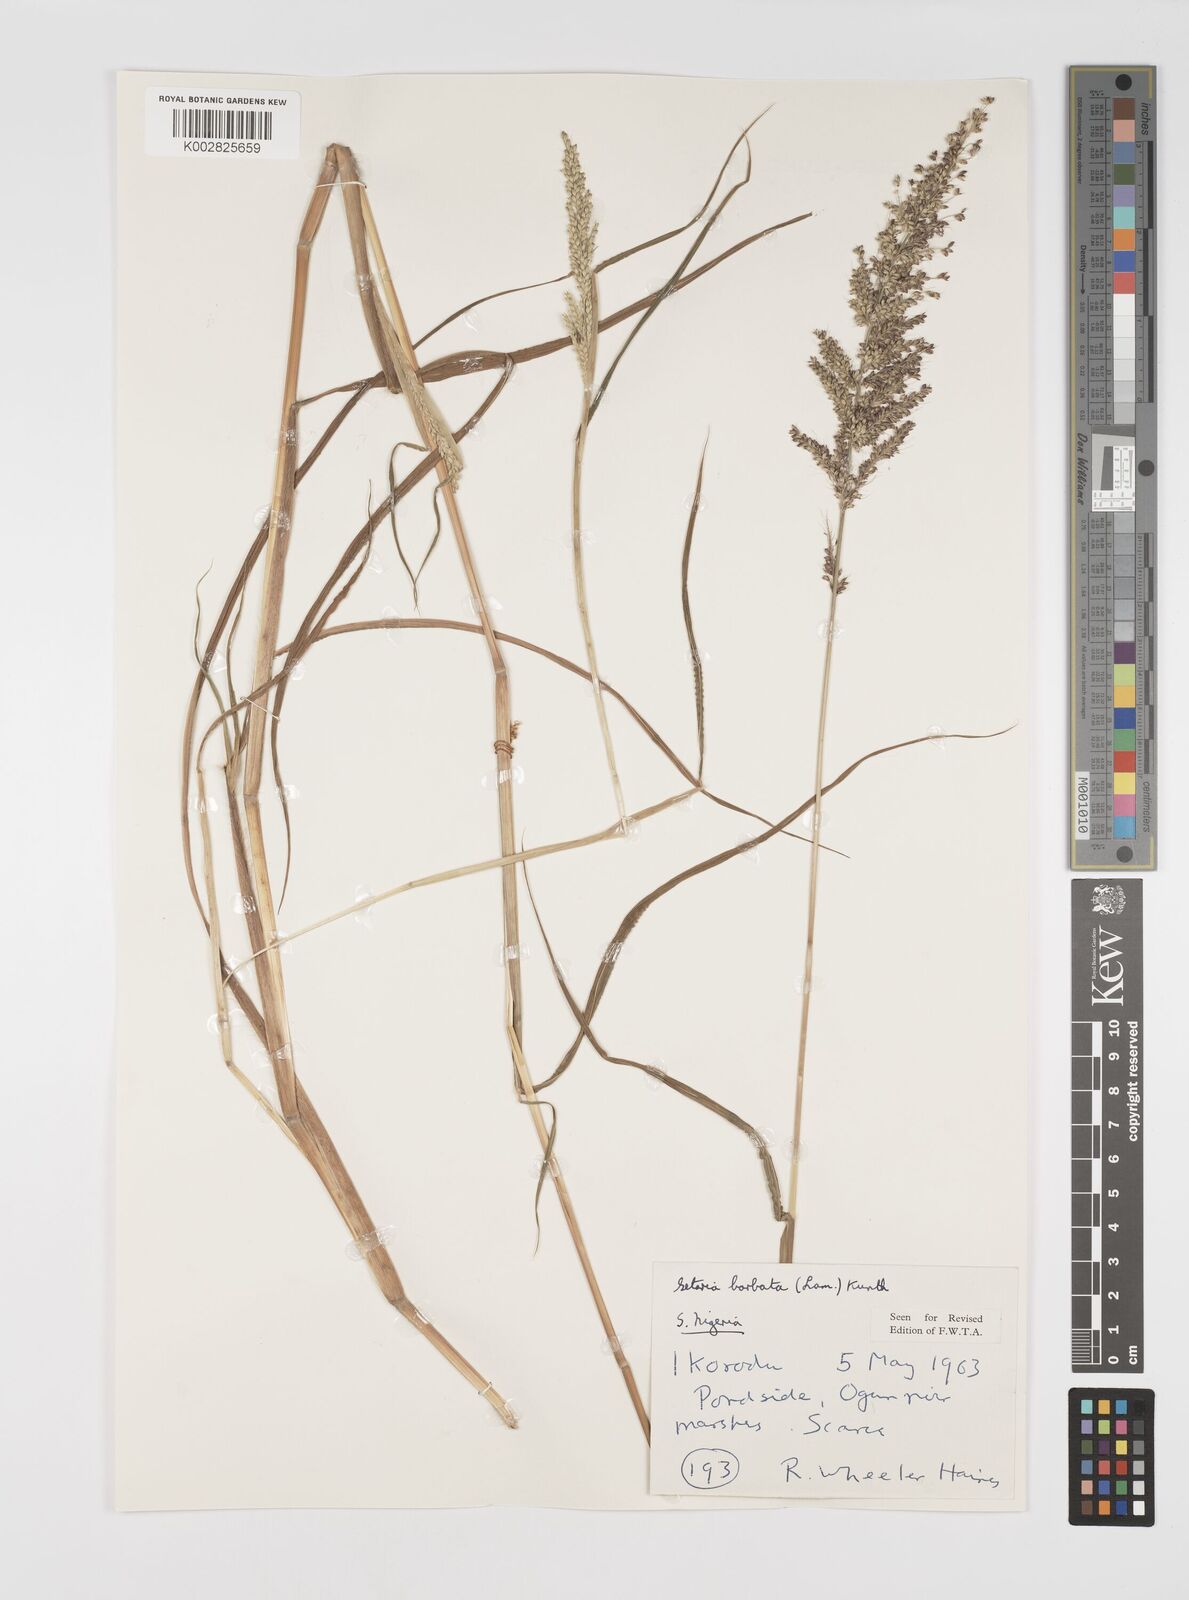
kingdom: Plantae
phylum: Tracheophyta
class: Liliopsida
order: Poales
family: Poaceae
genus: Setaria
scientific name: Setaria barbata
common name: East indian bristlegrass
